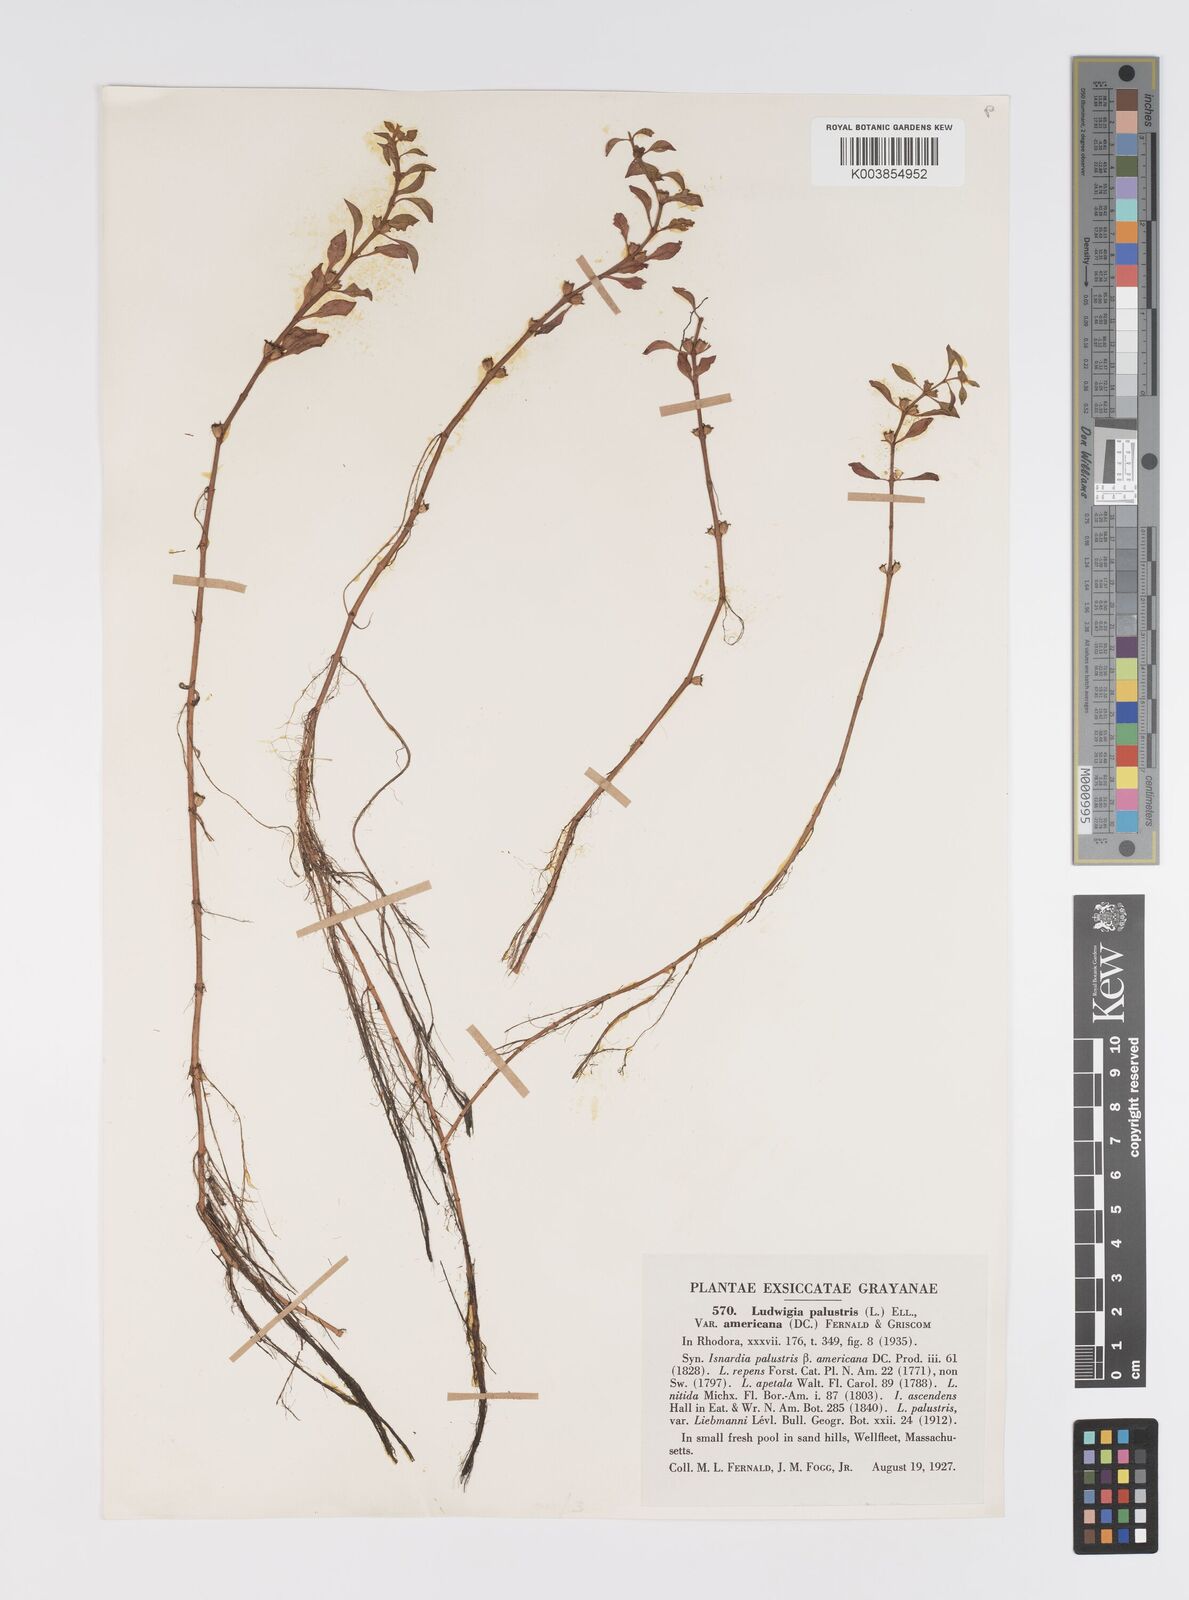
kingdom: Plantae
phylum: Tracheophyta
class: Magnoliopsida
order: Myrtales
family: Onagraceae
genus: Ludwigia
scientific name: Ludwigia palustris
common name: Hampshire-purslane
